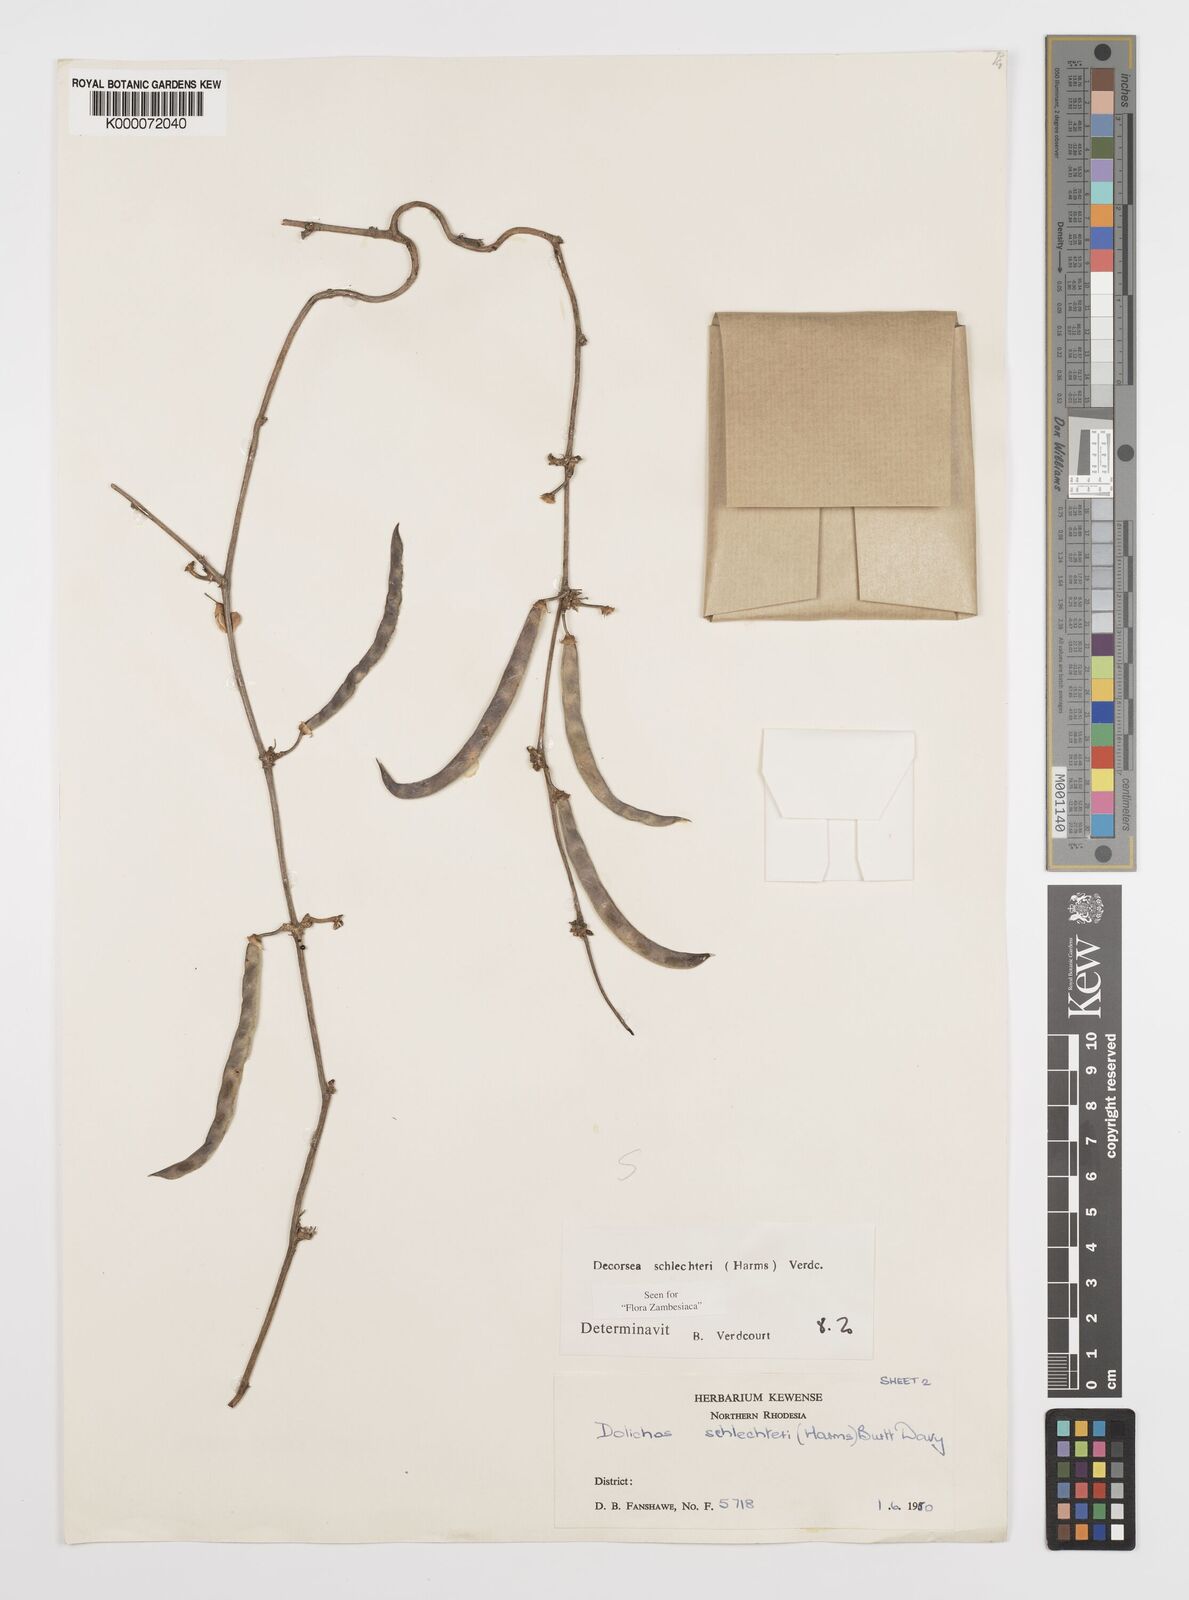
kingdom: Plantae
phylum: Tracheophyta
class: Magnoliopsida
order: Fabales
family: Fabaceae
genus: Decorsea
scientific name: Decorsea schlechteri
